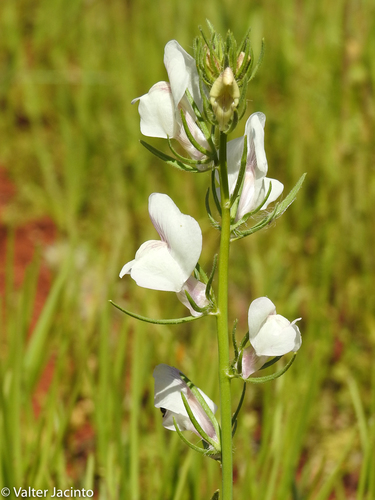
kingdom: Plantae
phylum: Tracheophyta
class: Magnoliopsida
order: Lamiales
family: Plantaginaceae
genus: Misopates
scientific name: Misopates calycinum
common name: Pale weasel's-snout
